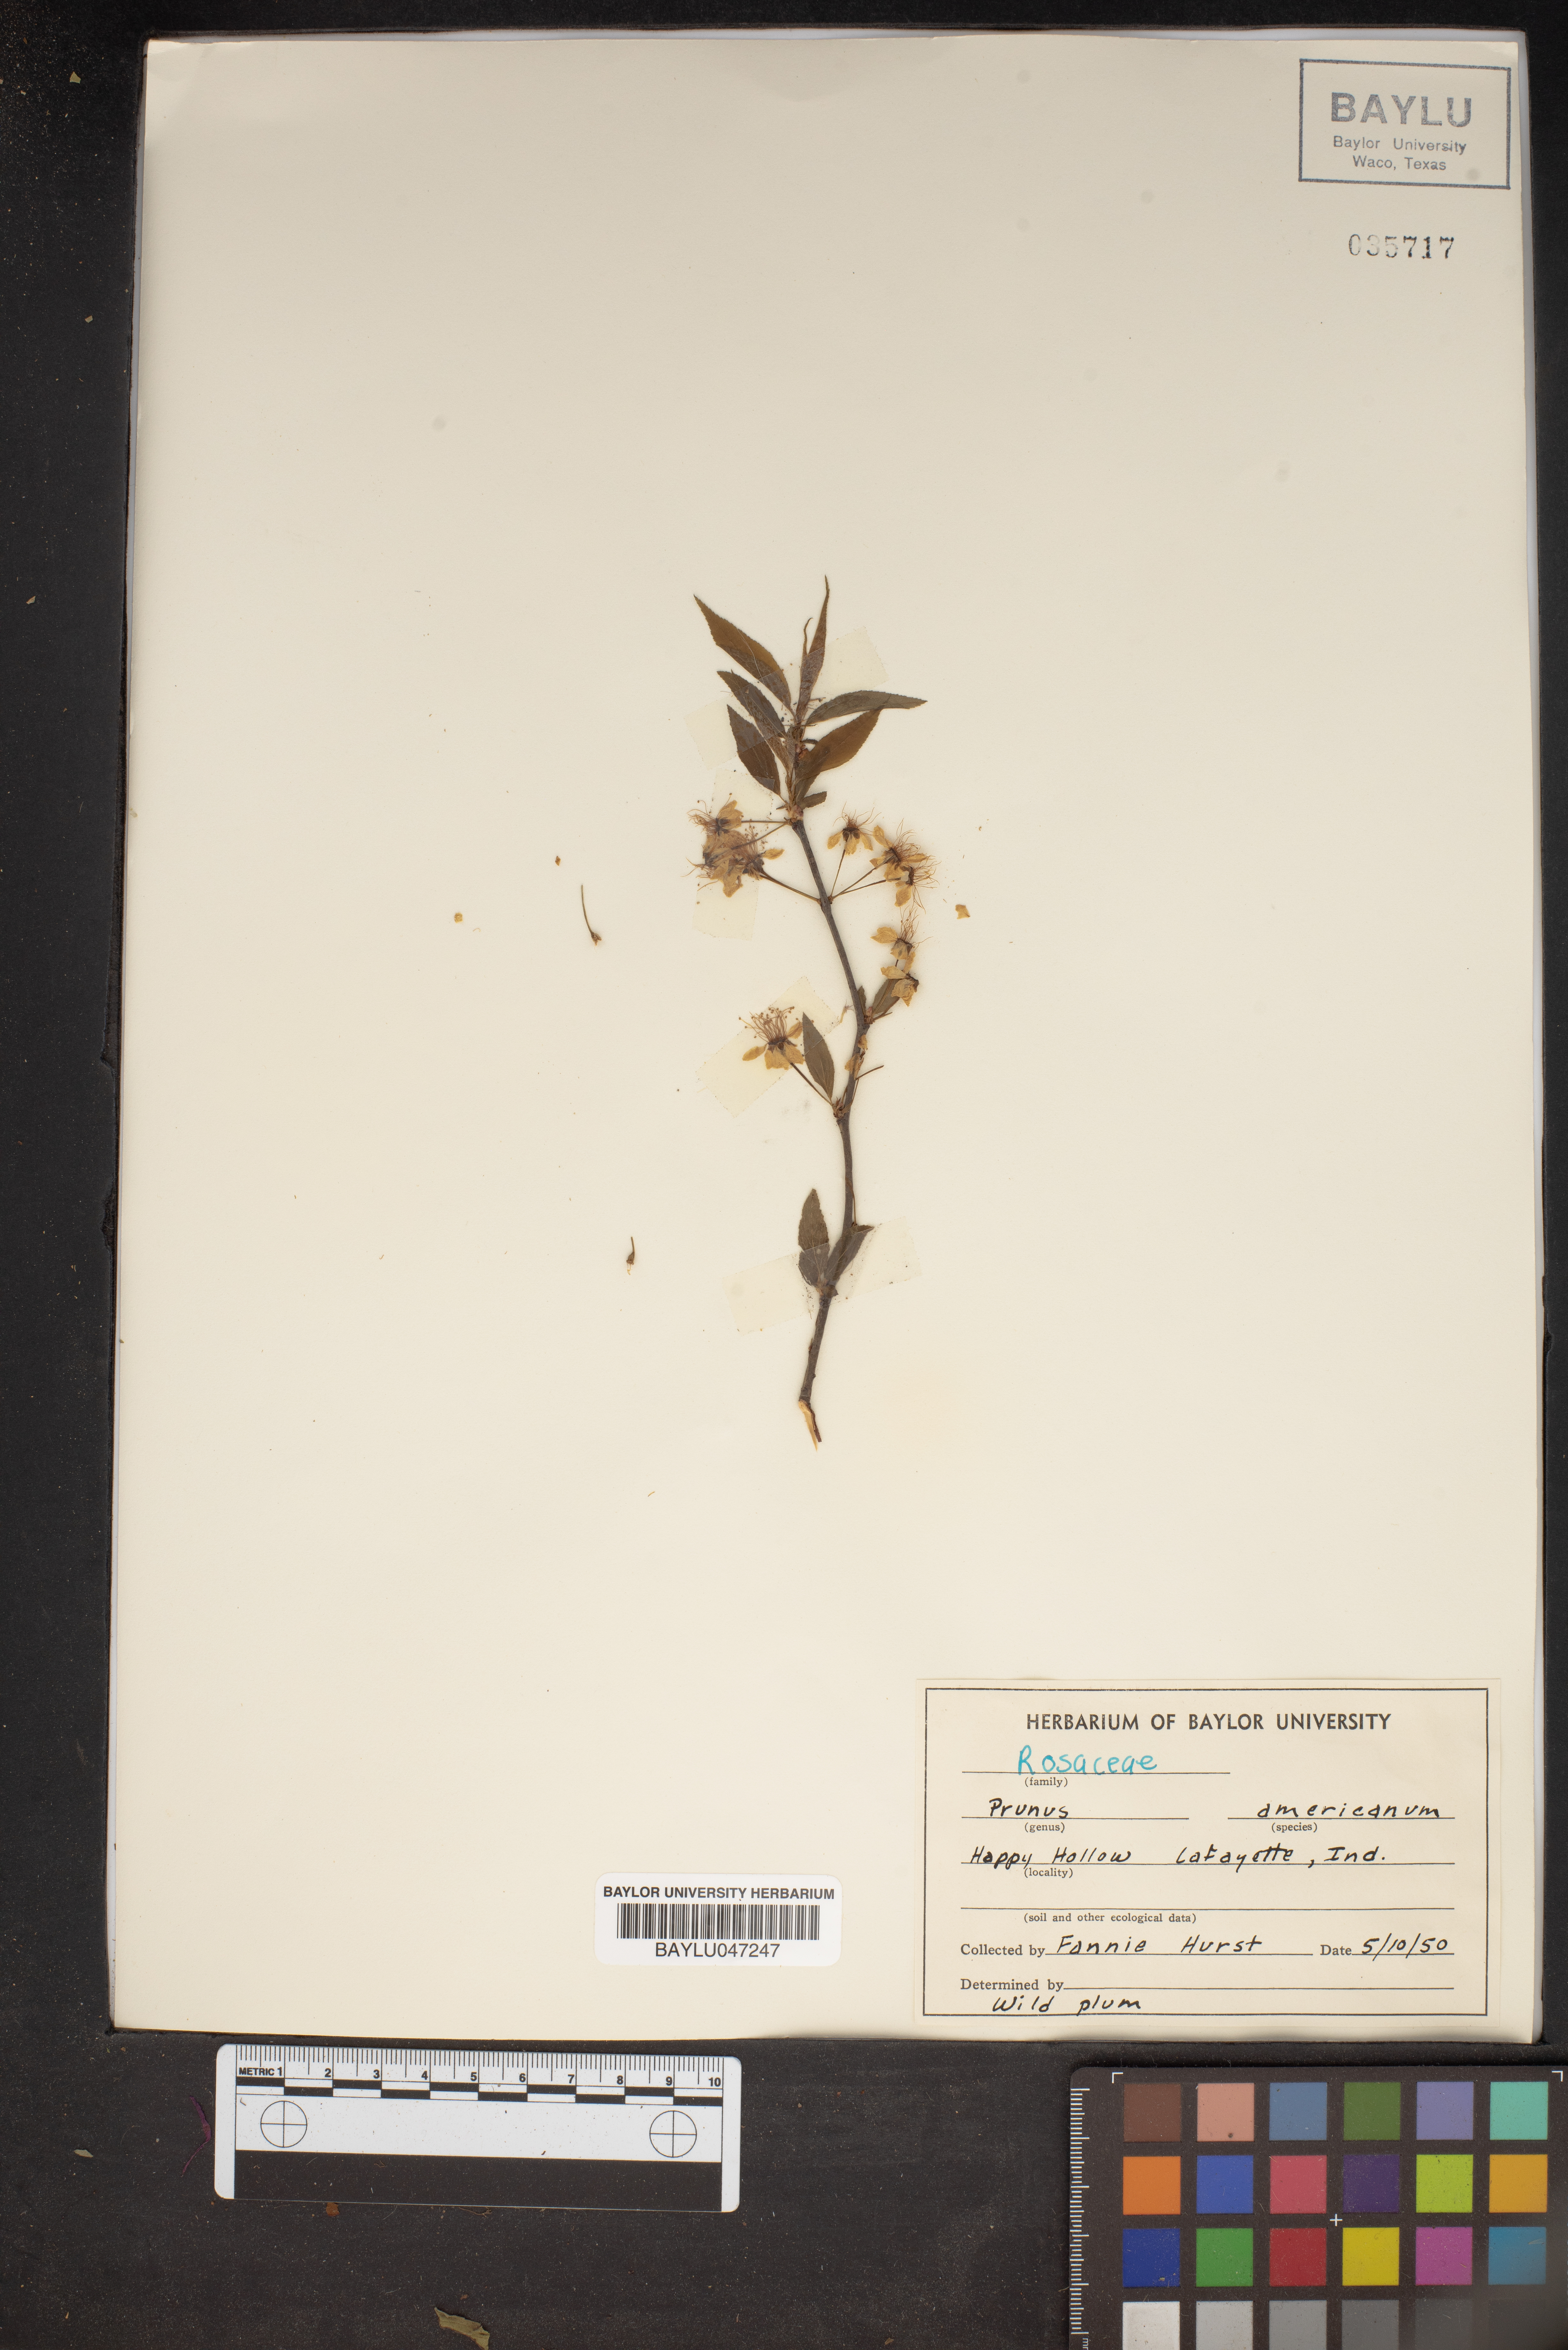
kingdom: Plantae
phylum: Tracheophyta
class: Magnoliopsida
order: Rosales
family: Rosaceae
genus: Prunus
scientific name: Prunus americana
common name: American plum
